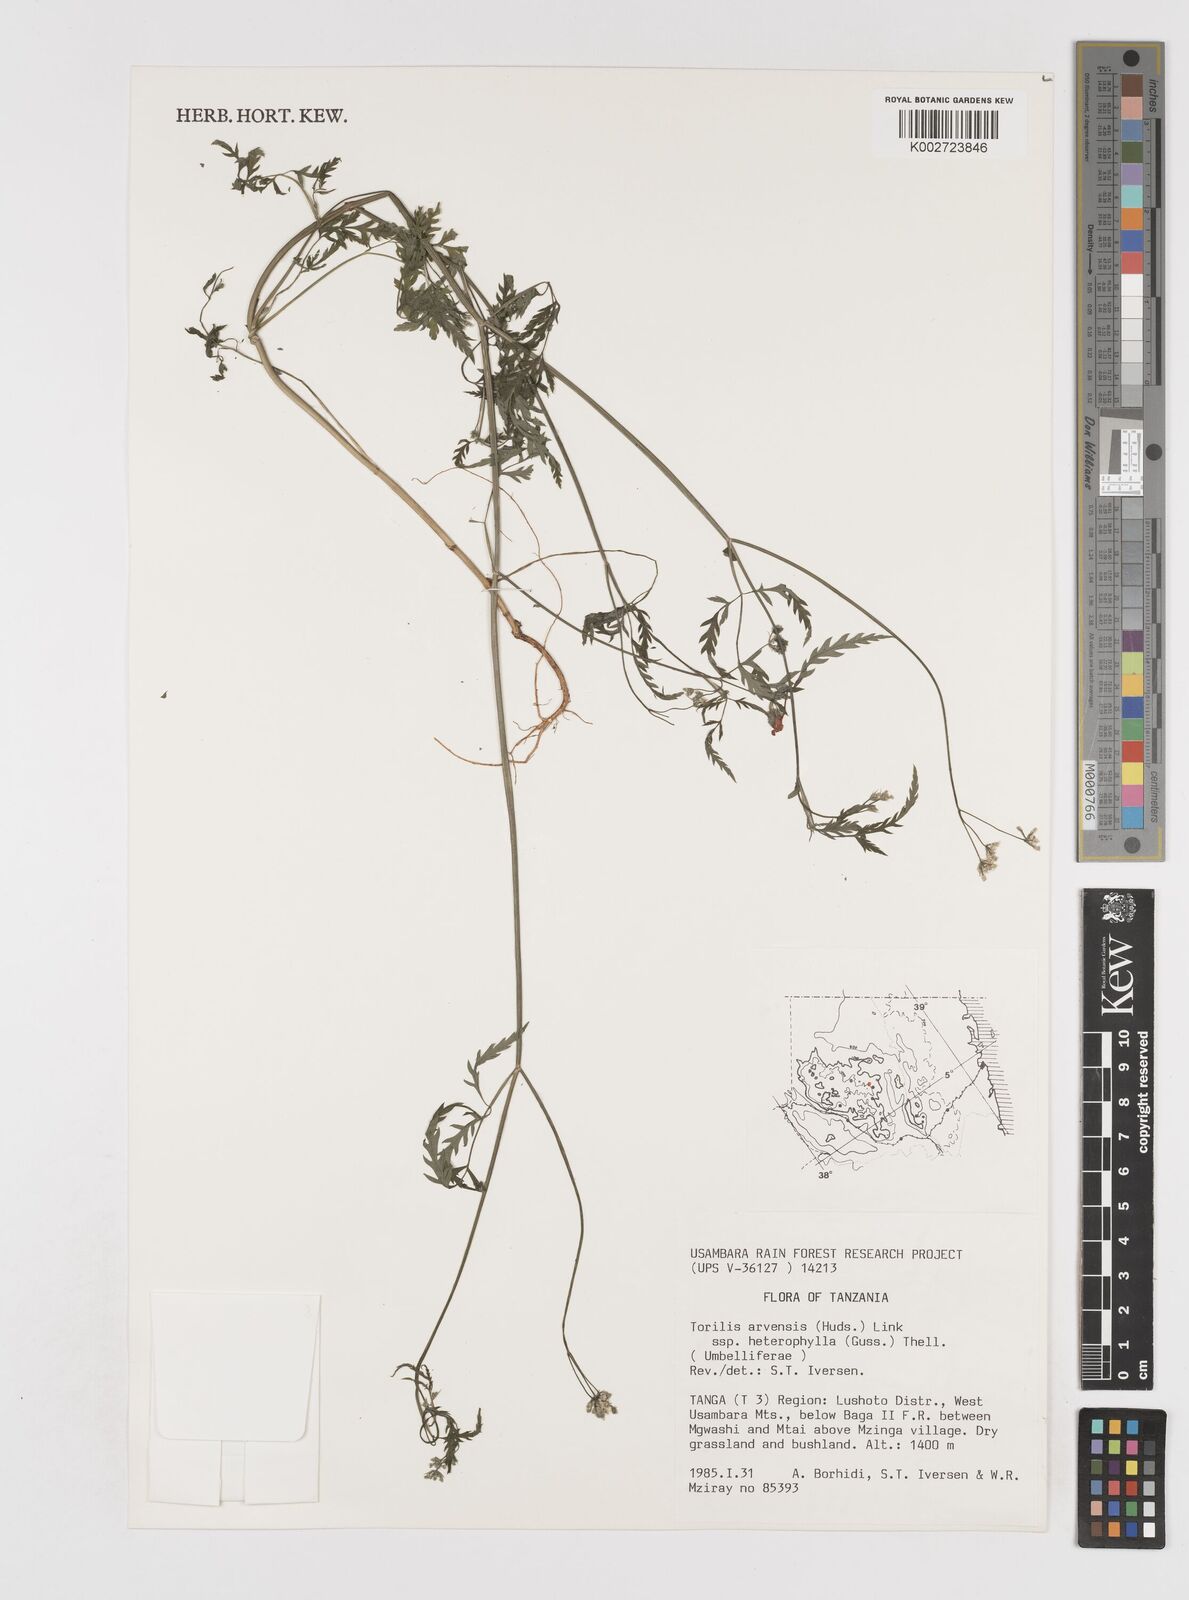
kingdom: Plantae
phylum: Tracheophyta
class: Magnoliopsida
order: Apiales
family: Apiaceae
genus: Torilis
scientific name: Torilis arvensis
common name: Spreading hedge-parsley
